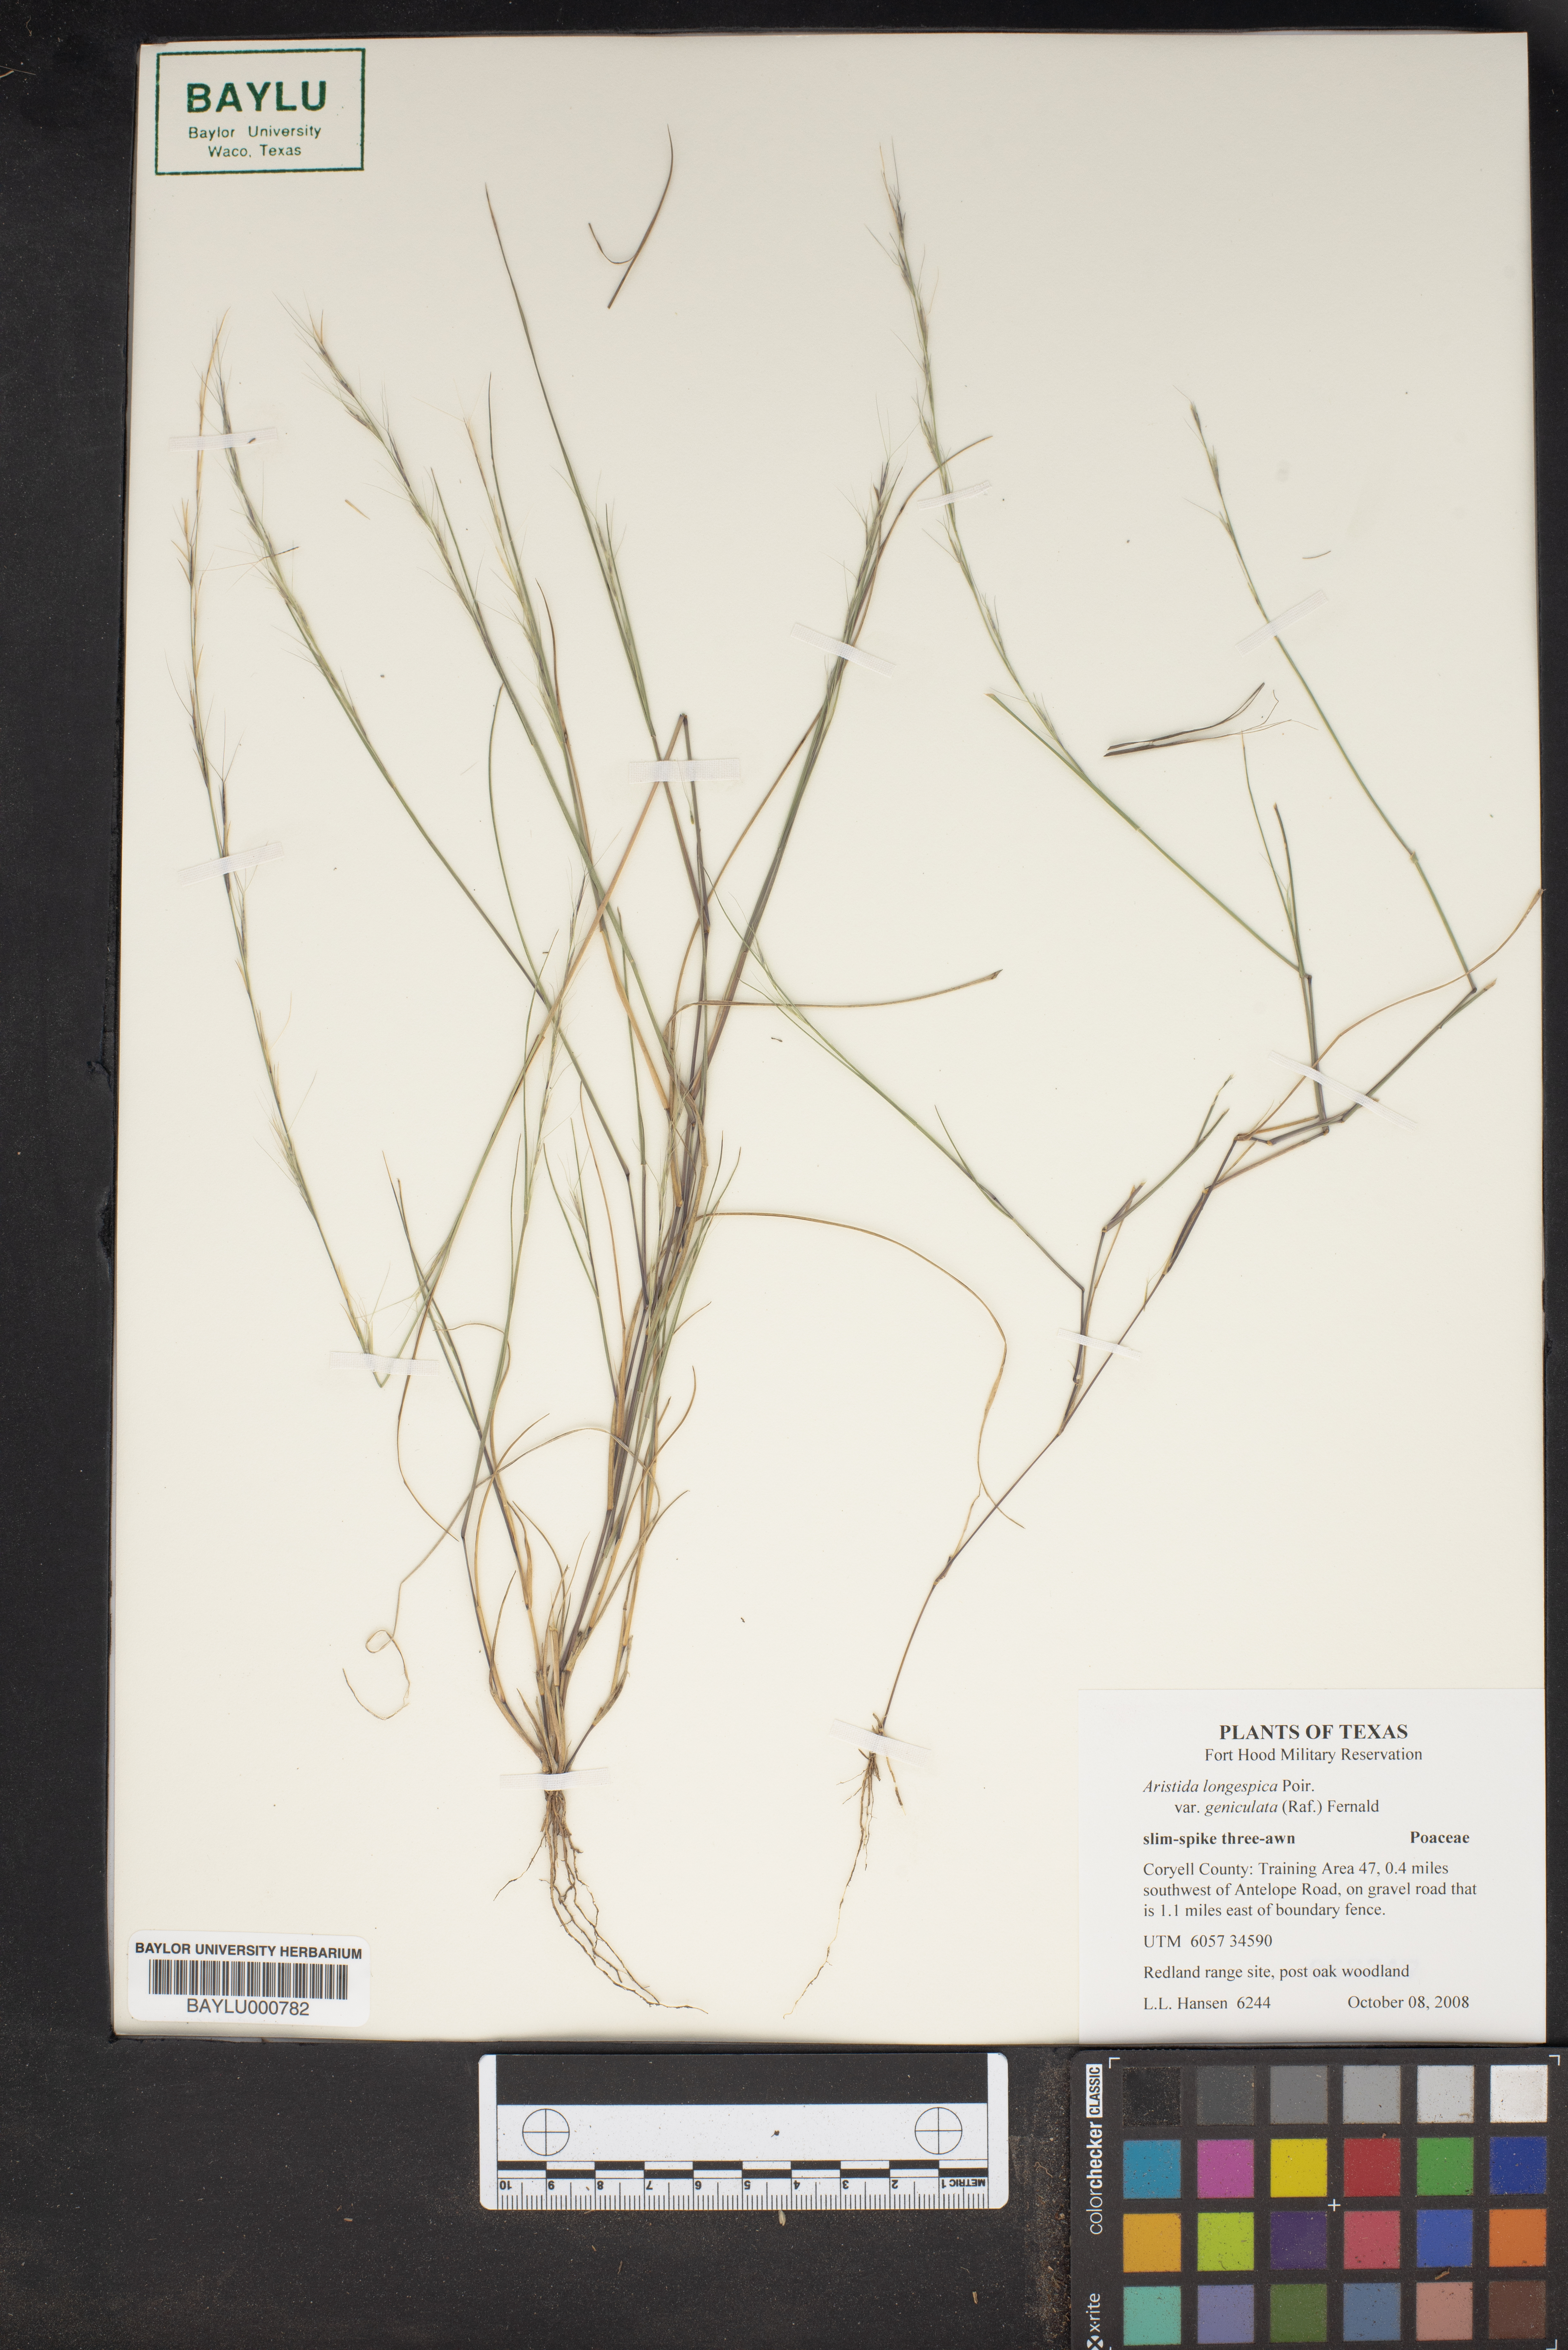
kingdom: Plantae
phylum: Tracheophyta
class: Liliopsida
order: Poales
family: Poaceae
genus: Aristida
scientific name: Aristida longespica
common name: Long-spiked triple-awned grass
